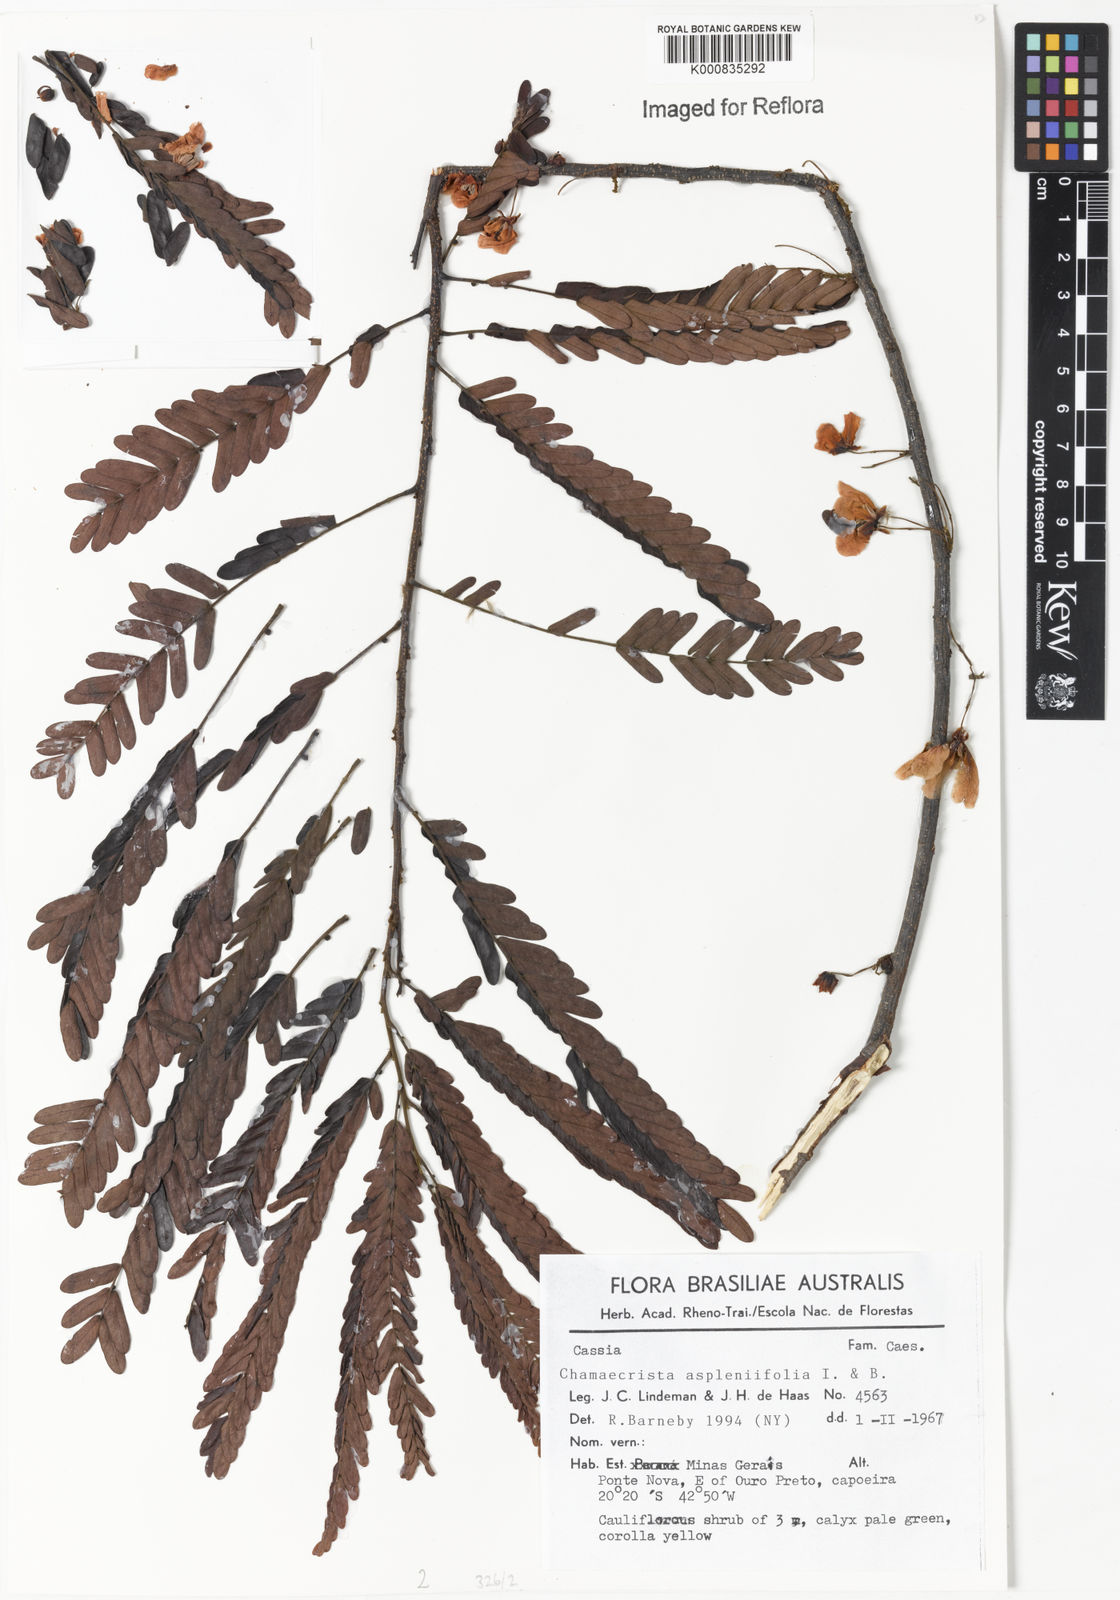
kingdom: Plantae
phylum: Tracheophyta
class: Magnoliopsida
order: Fabales
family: Fabaceae
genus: Chamaecrista
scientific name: Chamaecrista aspleniifolia
